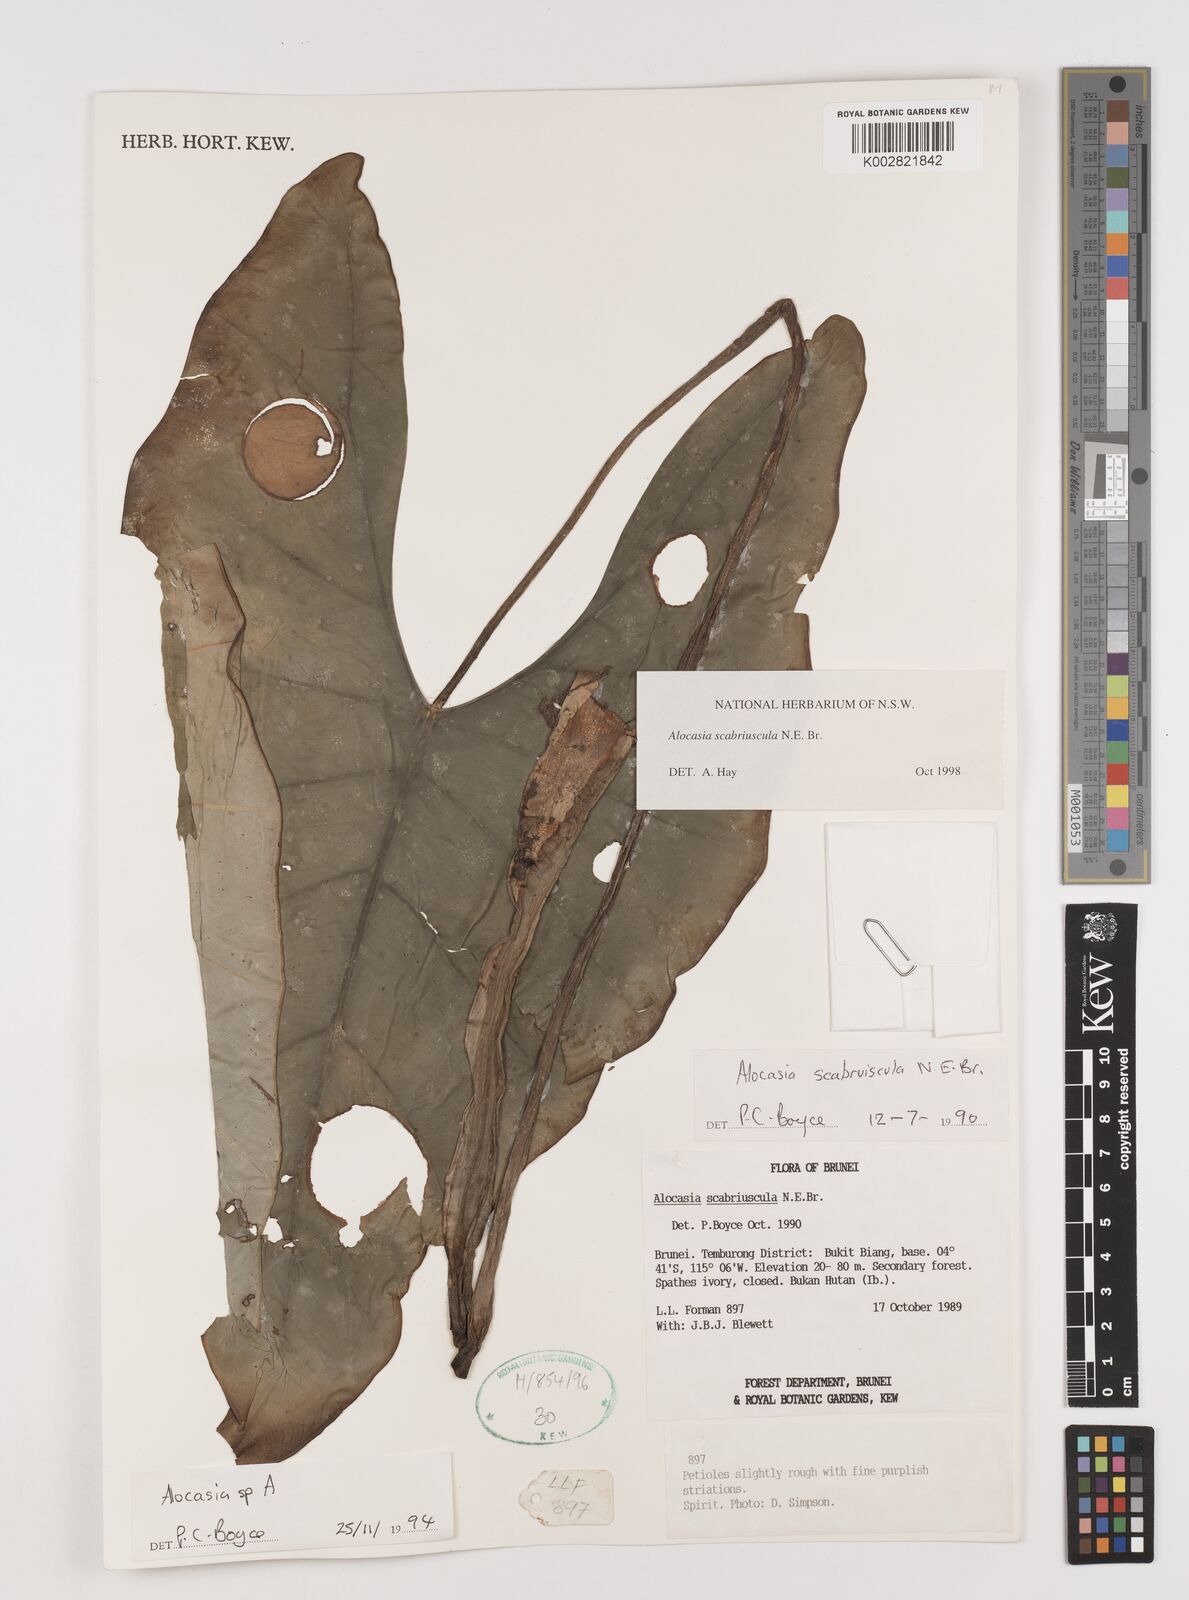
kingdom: Plantae
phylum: Tracheophyta
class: Liliopsida
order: Alismatales
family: Araceae
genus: Alocasia
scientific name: Alocasia scabriuscula
